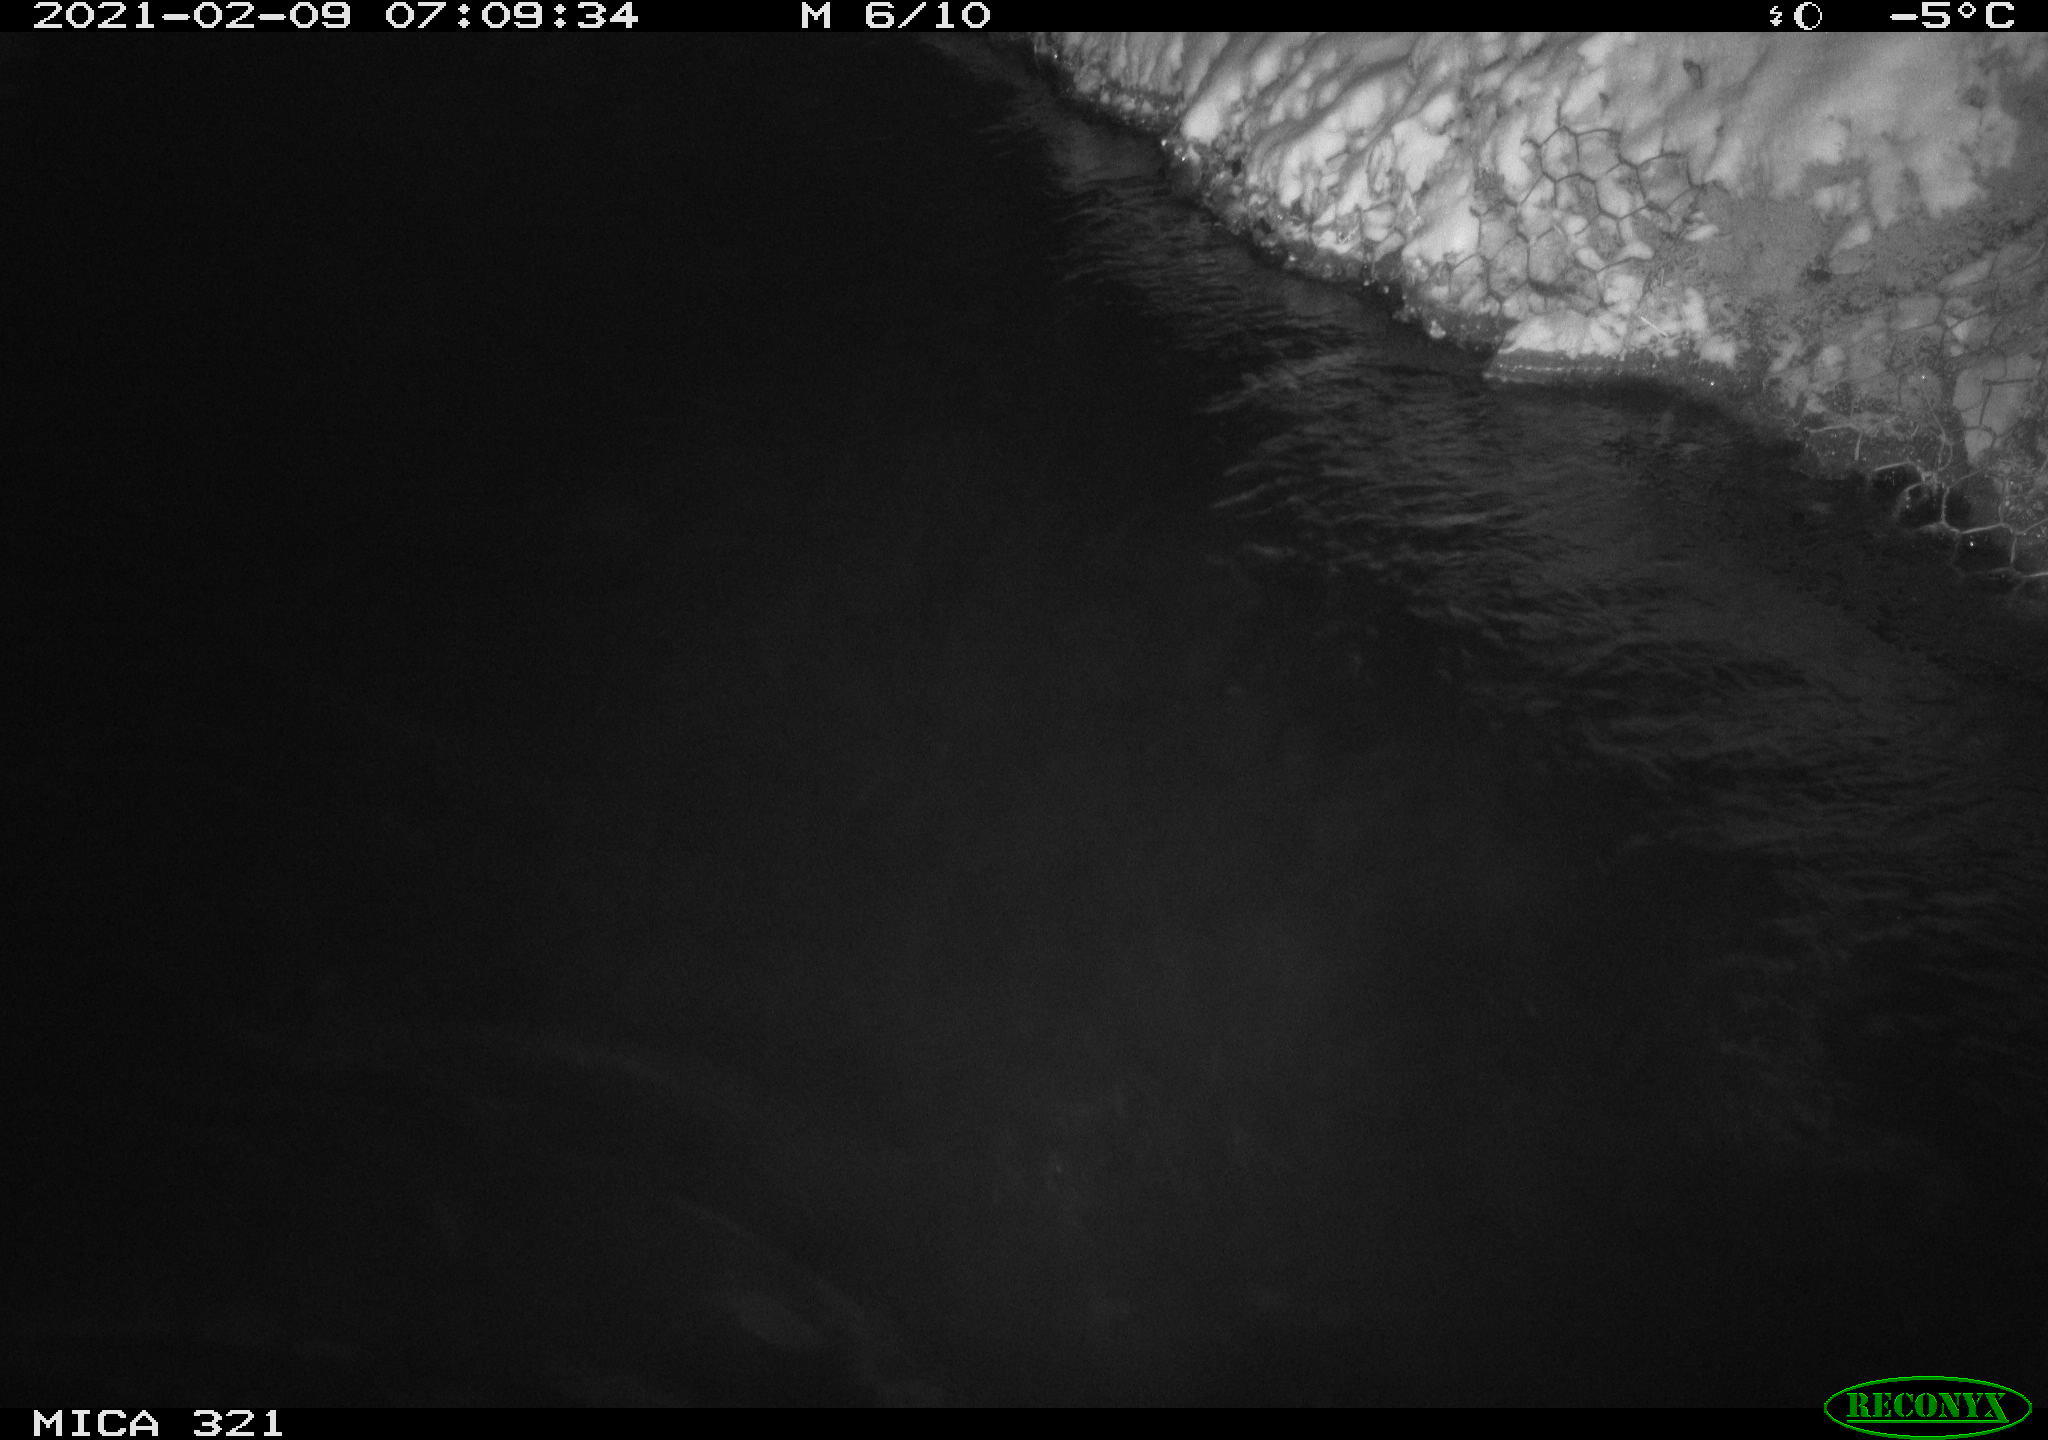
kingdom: Animalia
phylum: Chordata
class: Aves
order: Anseriformes
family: Anatidae
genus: Anas
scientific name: Anas platyrhynchos
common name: Mallard
